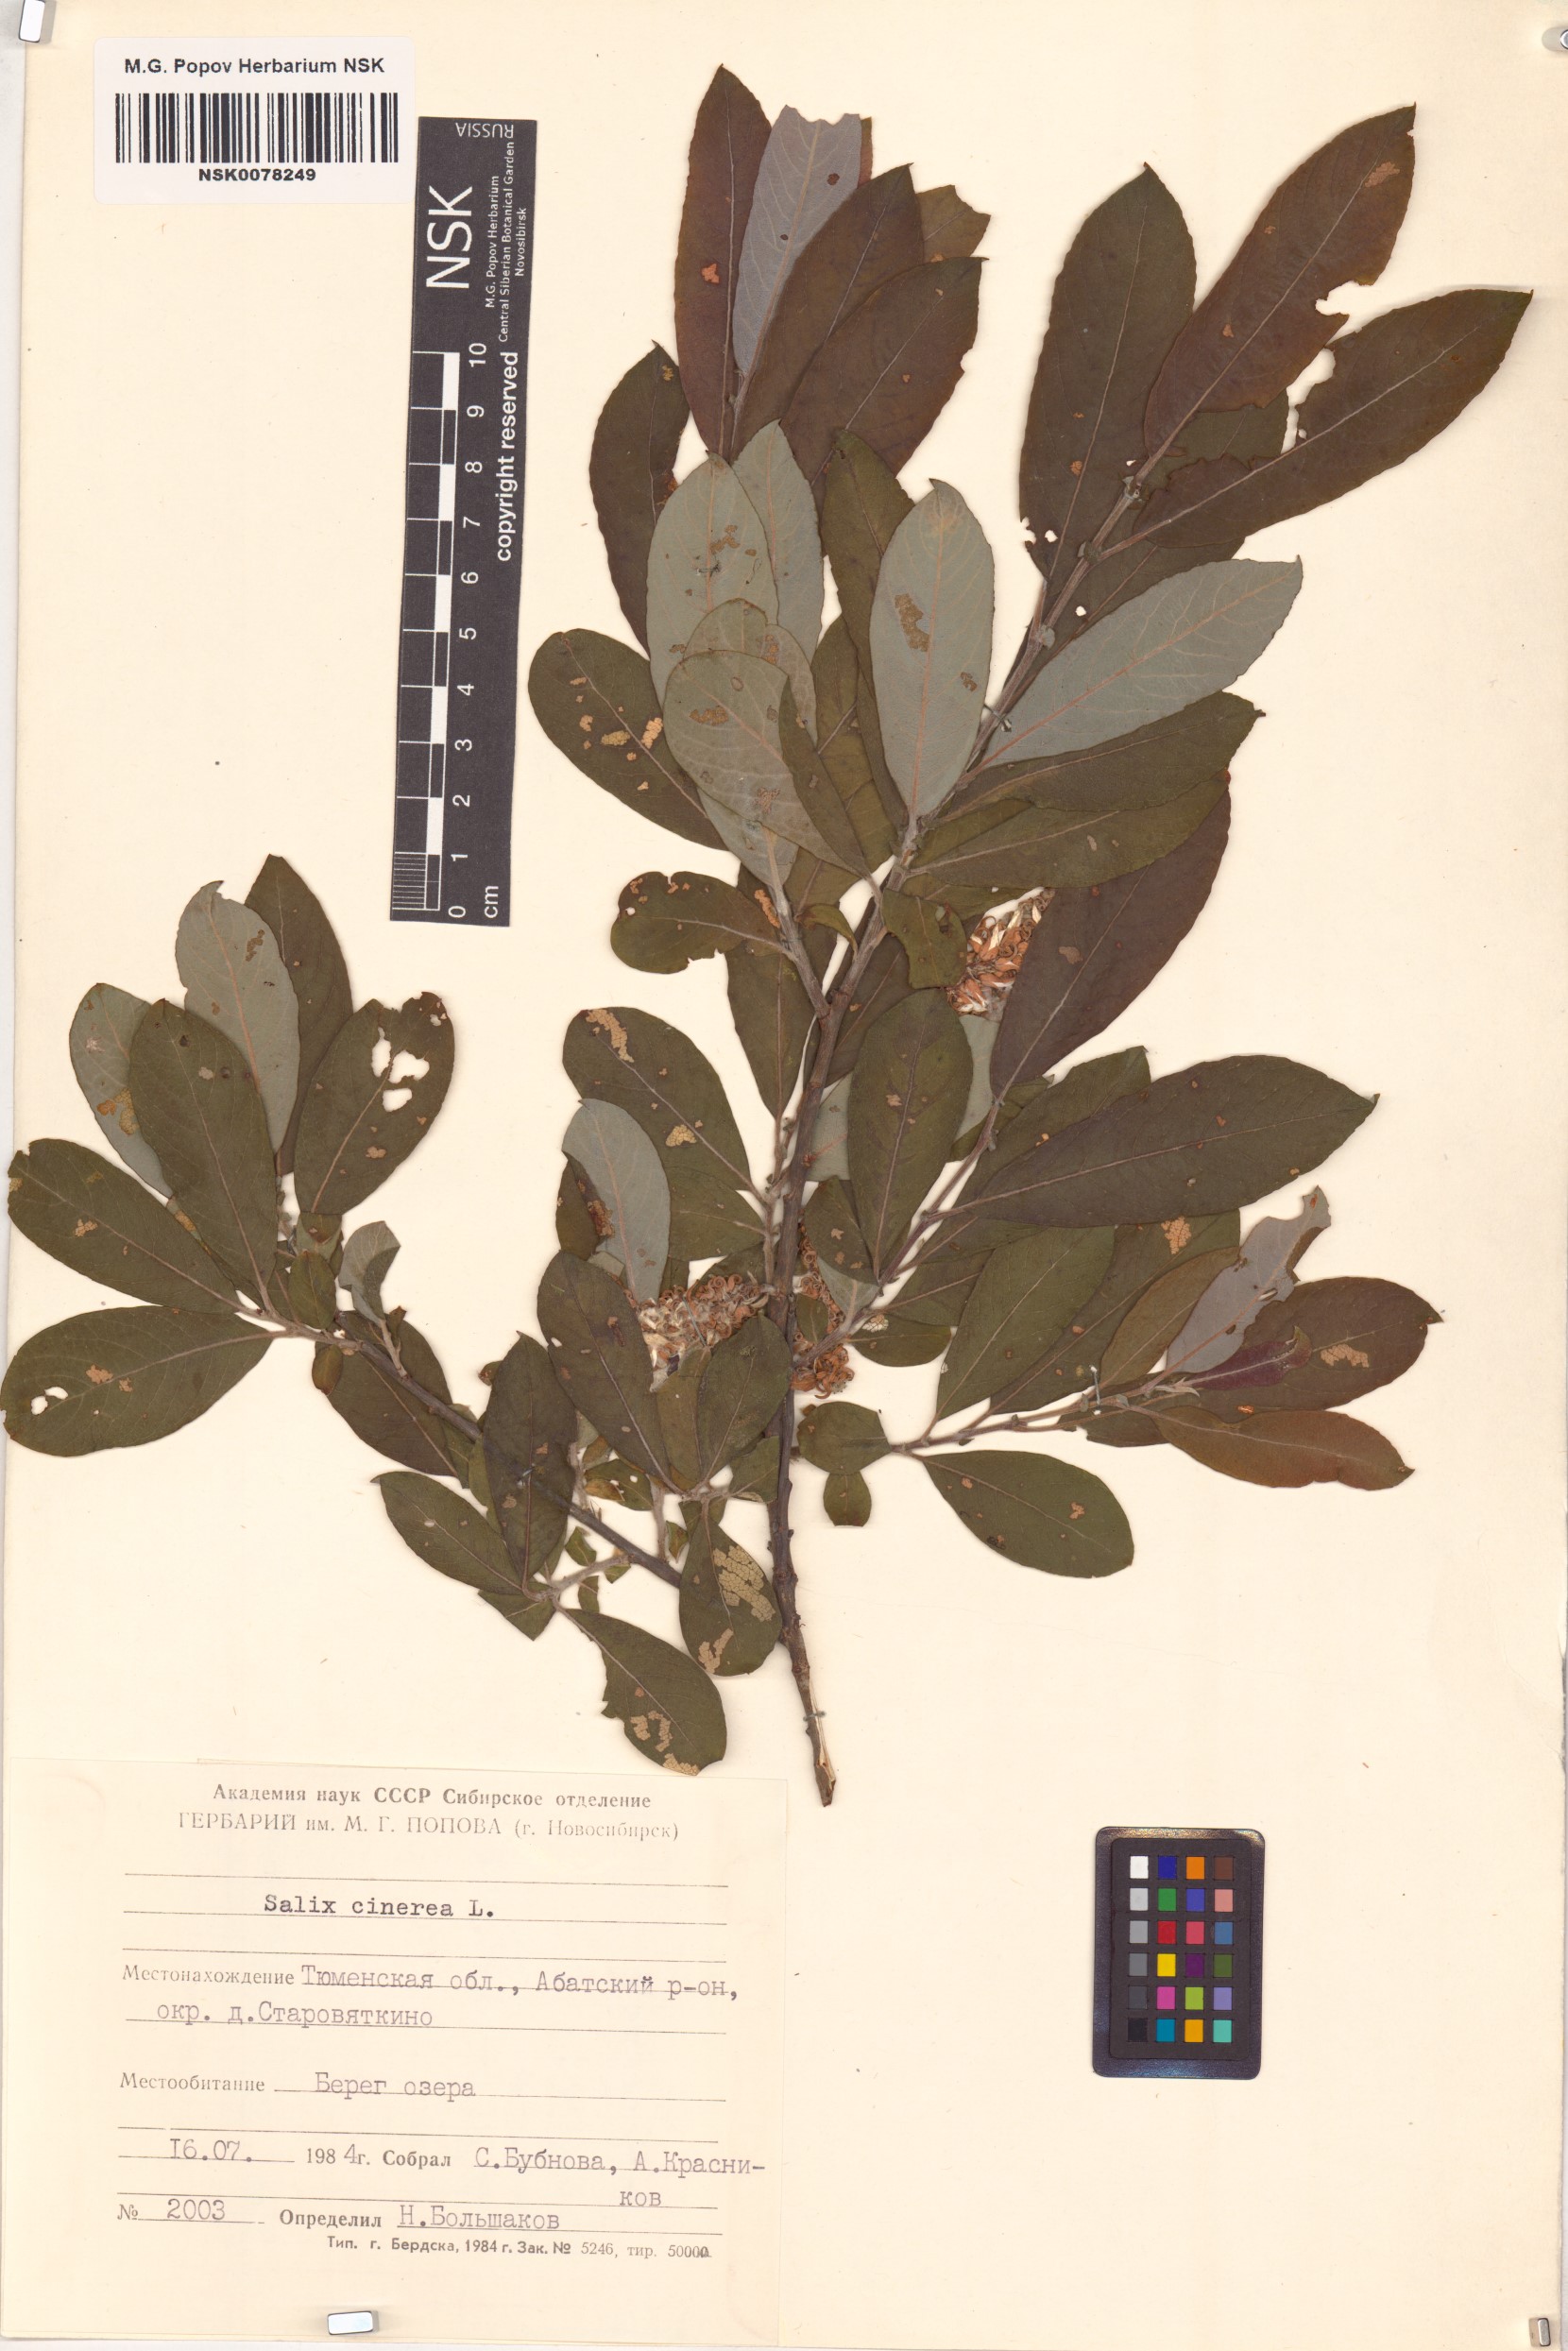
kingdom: Plantae
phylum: Tracheophyta
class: Magnoliopsida
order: Malpighiales
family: Salicaceae
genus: Salix
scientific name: Salix cinerea
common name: Common sallow
